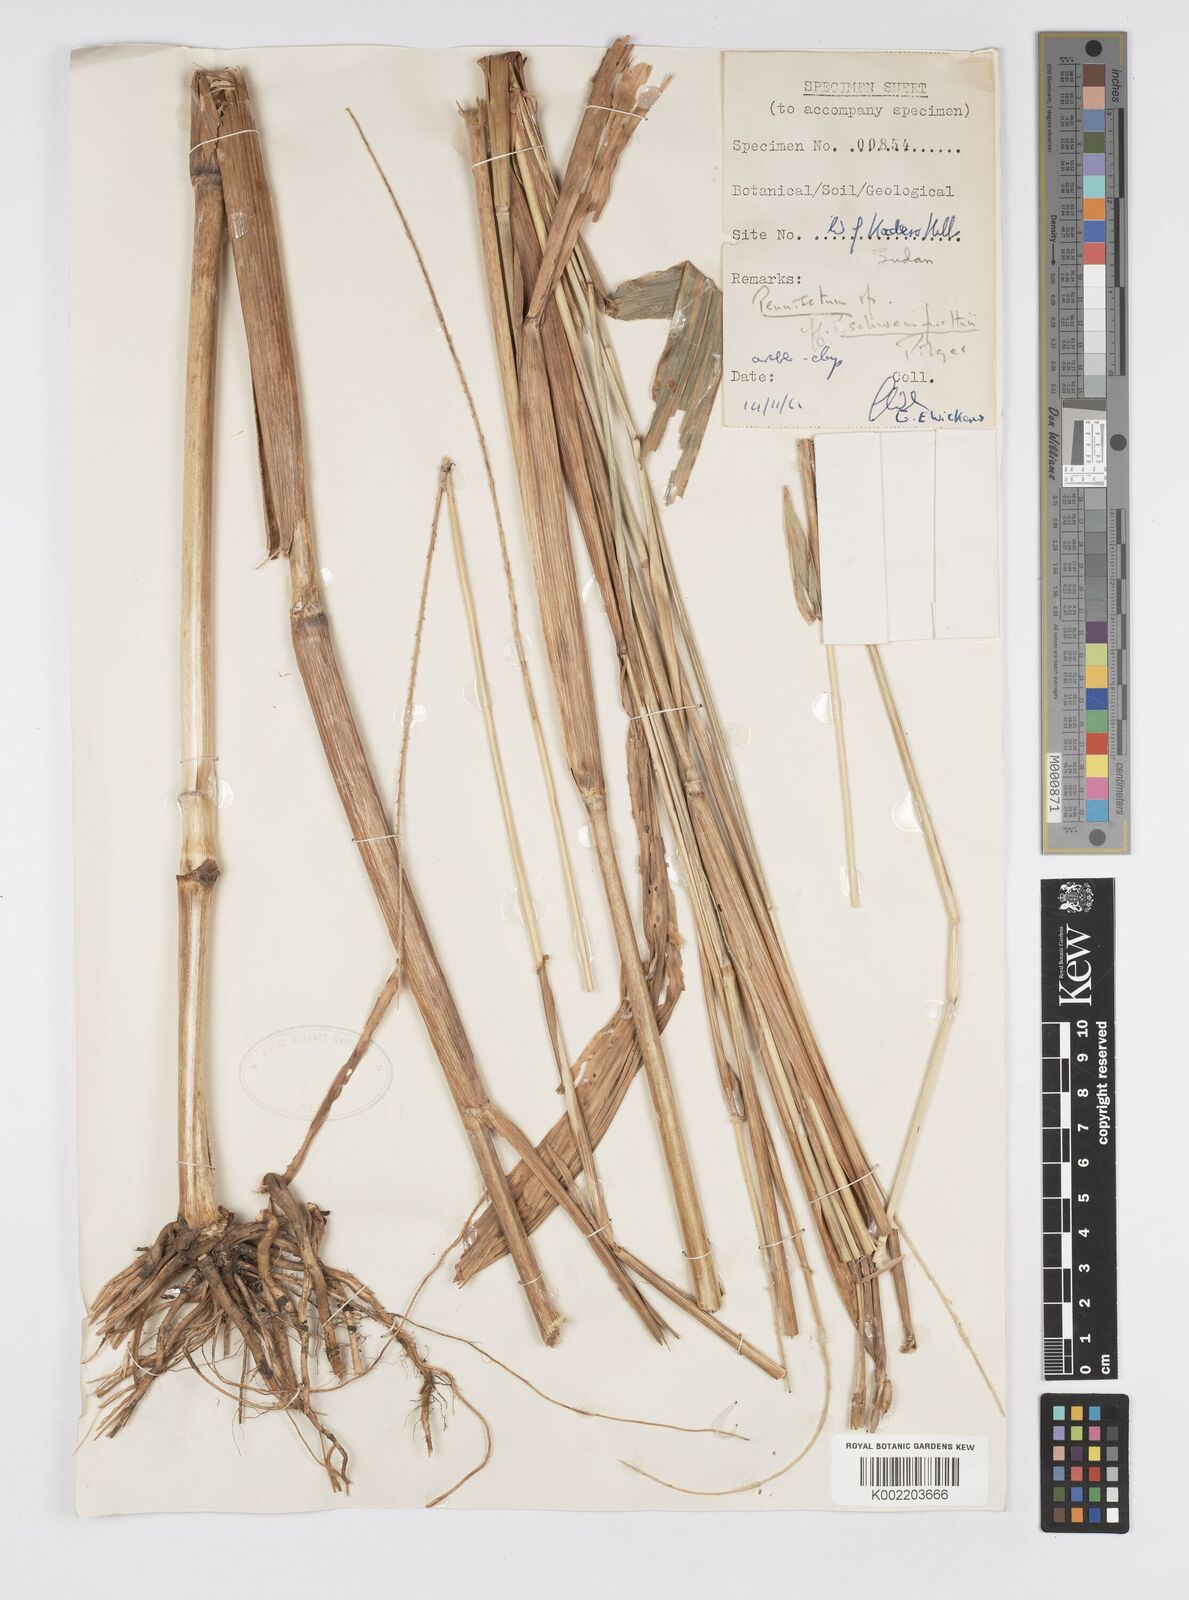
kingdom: Plantae
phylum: Tracheophyta
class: Liliopsida
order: Poales
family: Poaceae
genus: Cenchrus
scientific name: Cenchrus schweinfurthii
